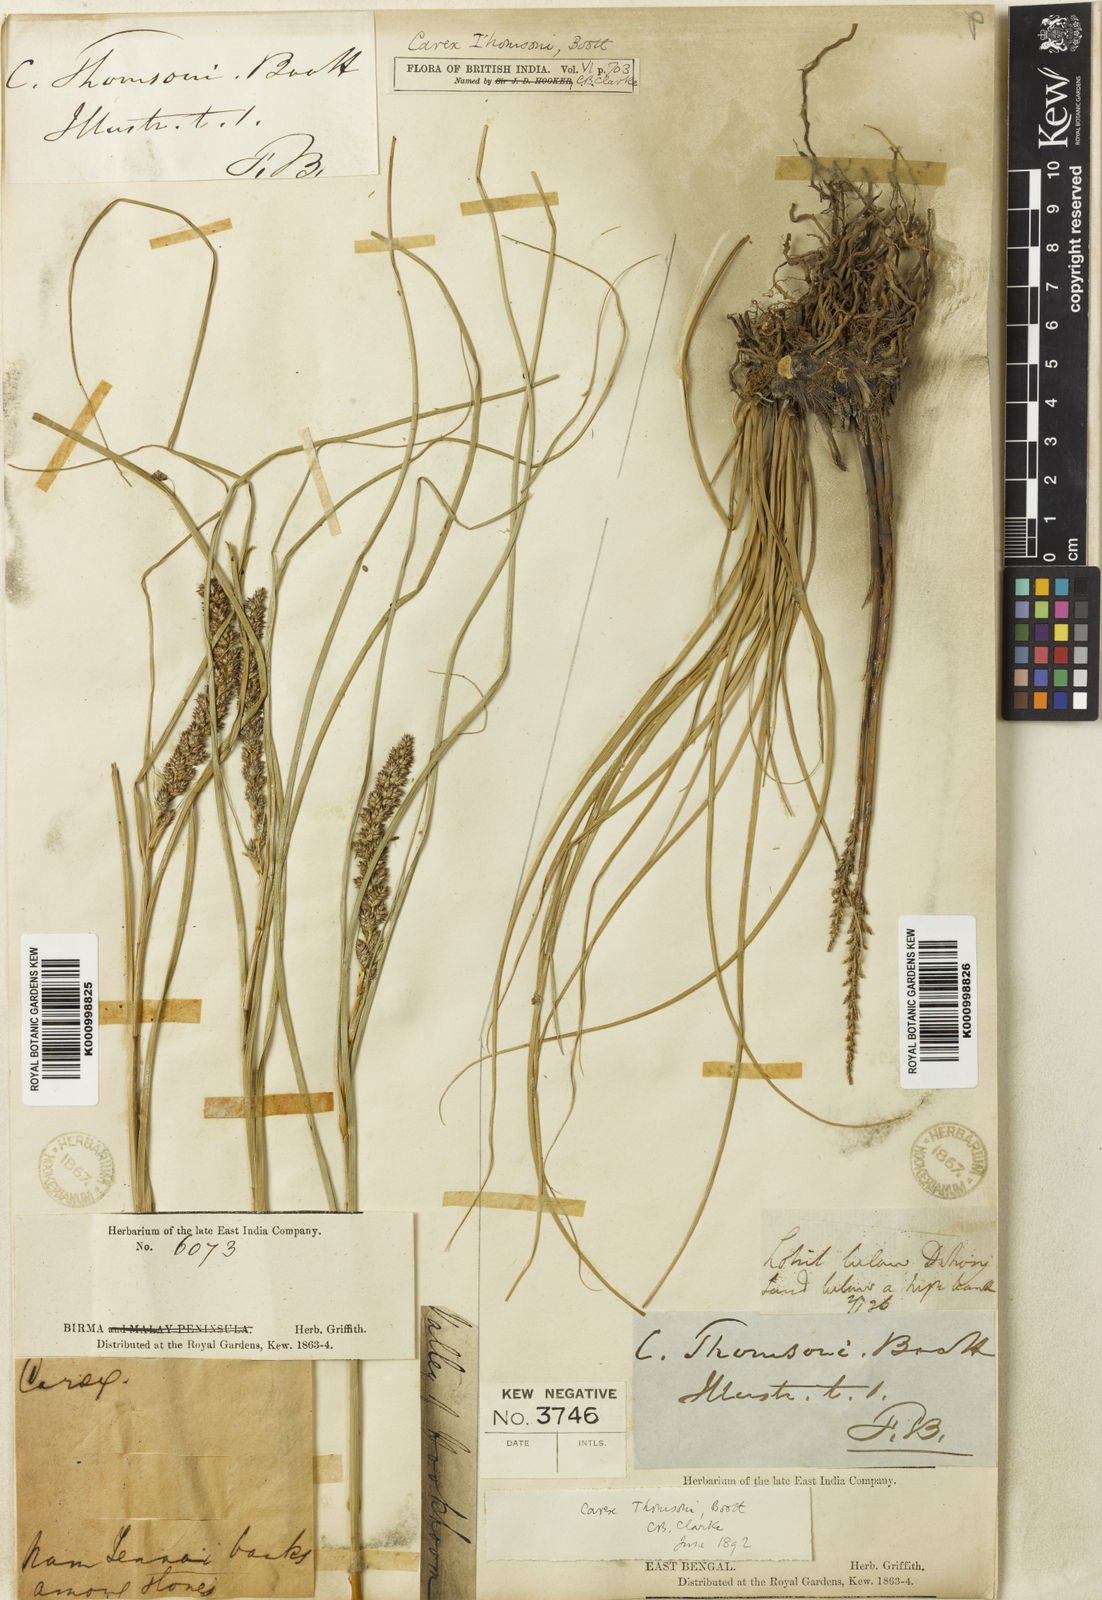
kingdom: Plantae
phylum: Tracheophyta
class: Liliopsida
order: Poales
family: Cyperaceae
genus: Carex
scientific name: Carex thomsonii
